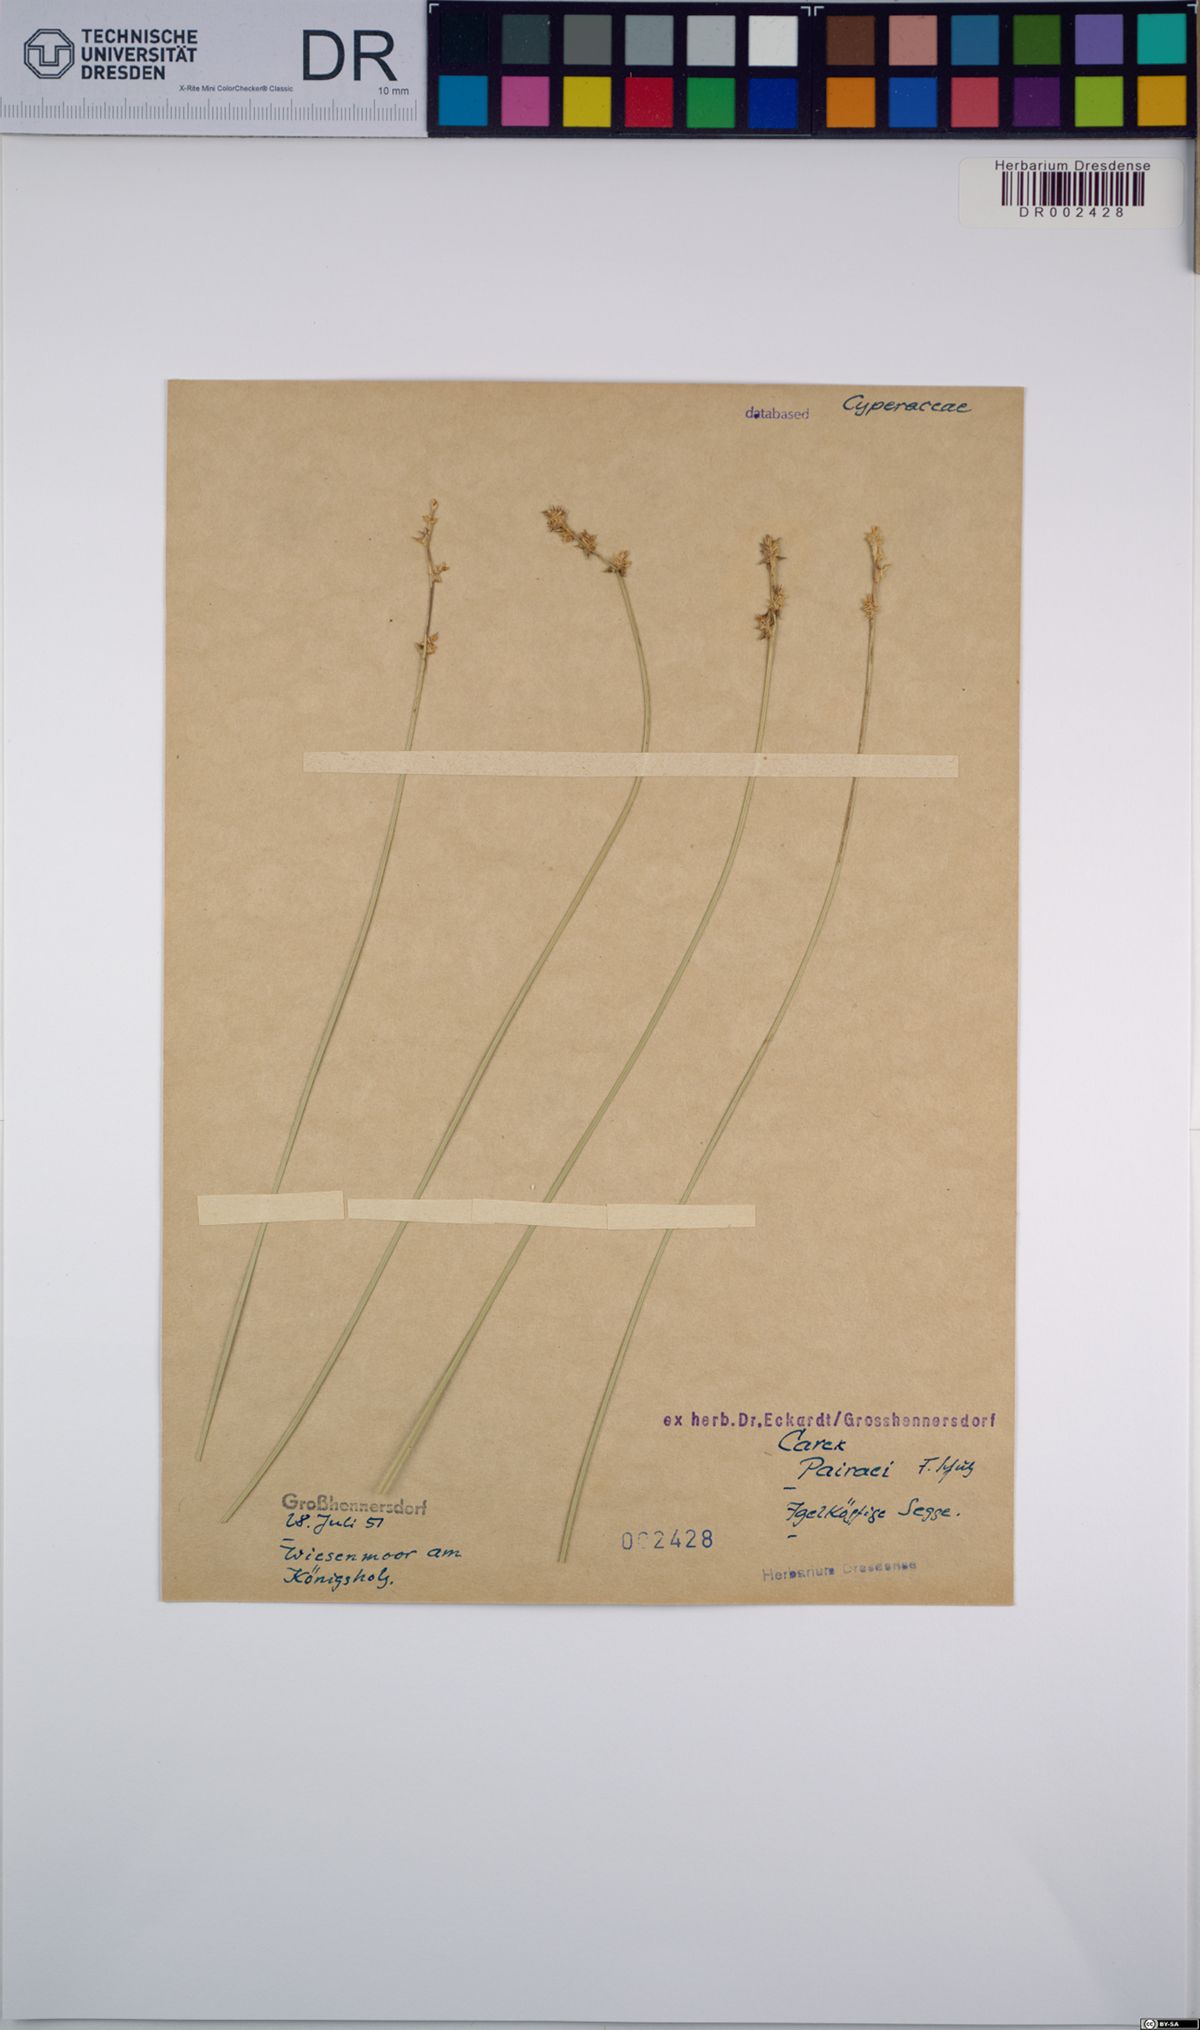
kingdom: Plantae
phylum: Tracheophyta
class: Liliopsida
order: Poales
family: Cyperaceae
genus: Carex
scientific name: Carex pairae
